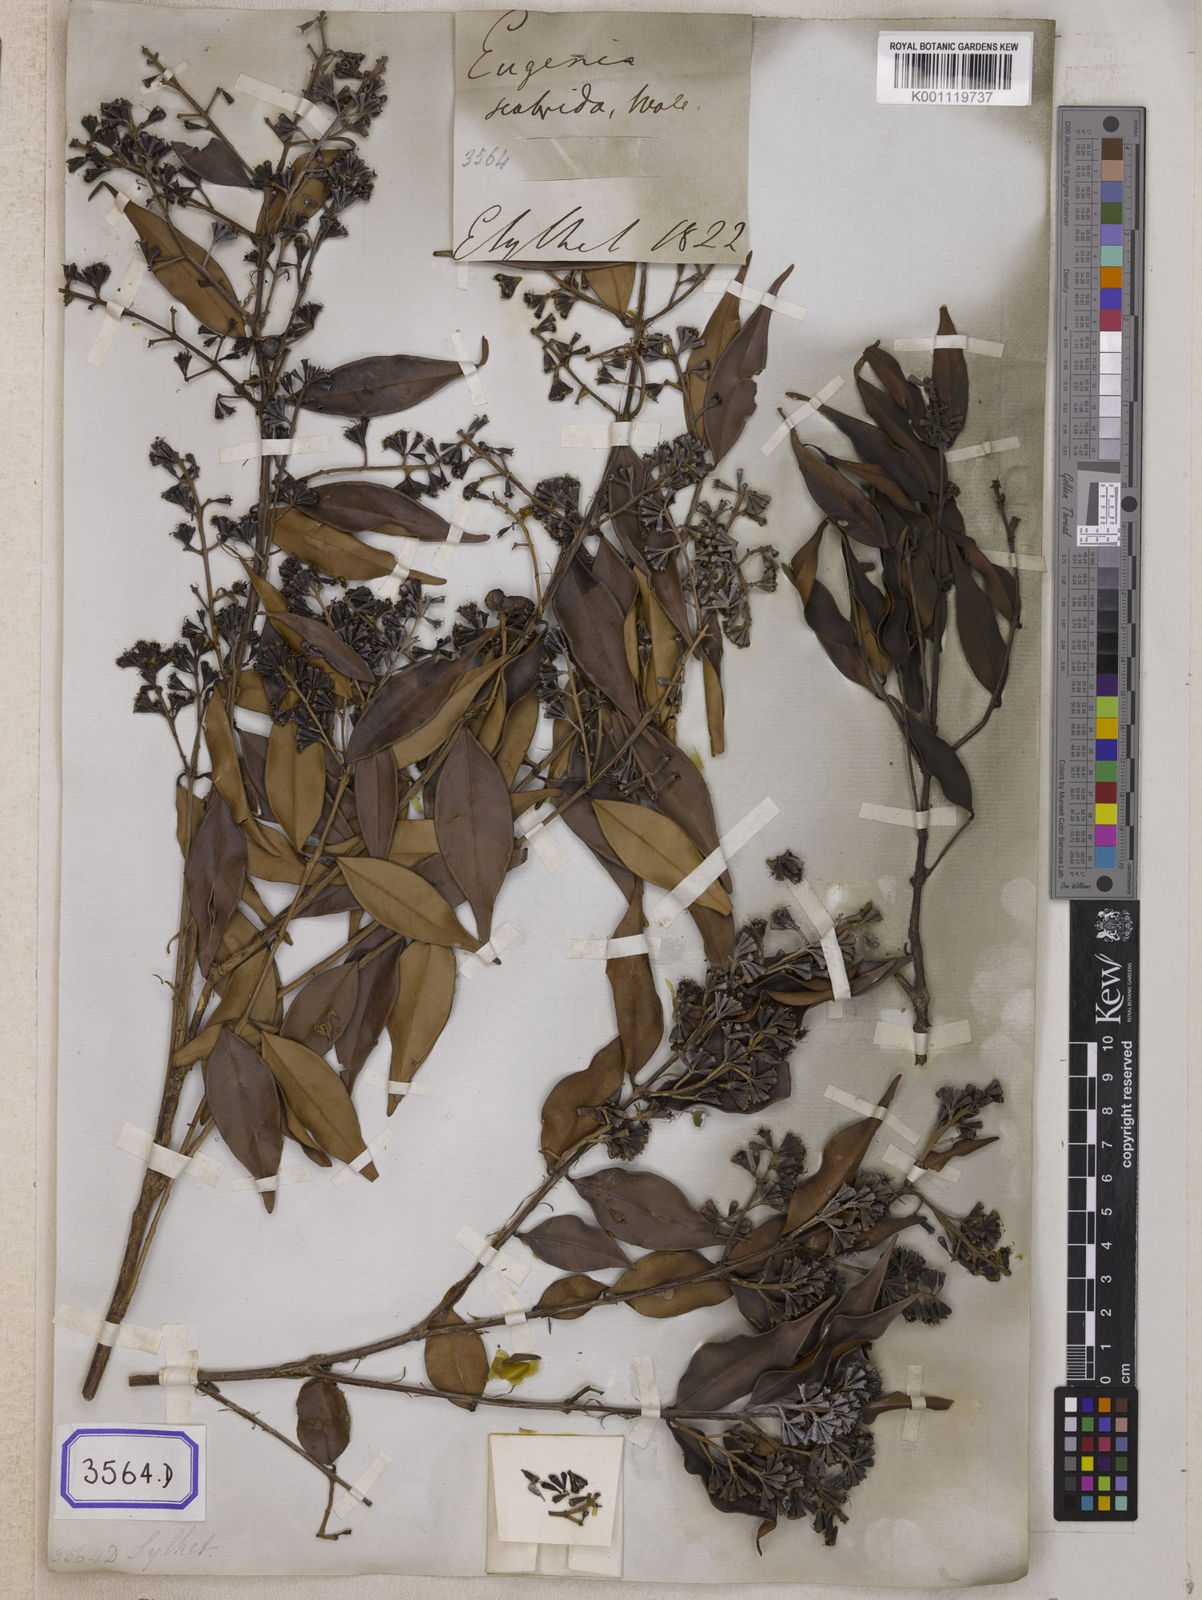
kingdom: Plantae
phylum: Tracheophyta
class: Magnoliopsida
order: Myrtales
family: Myrtaceae
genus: Syzygium
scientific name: Syzygium zeylanicum
